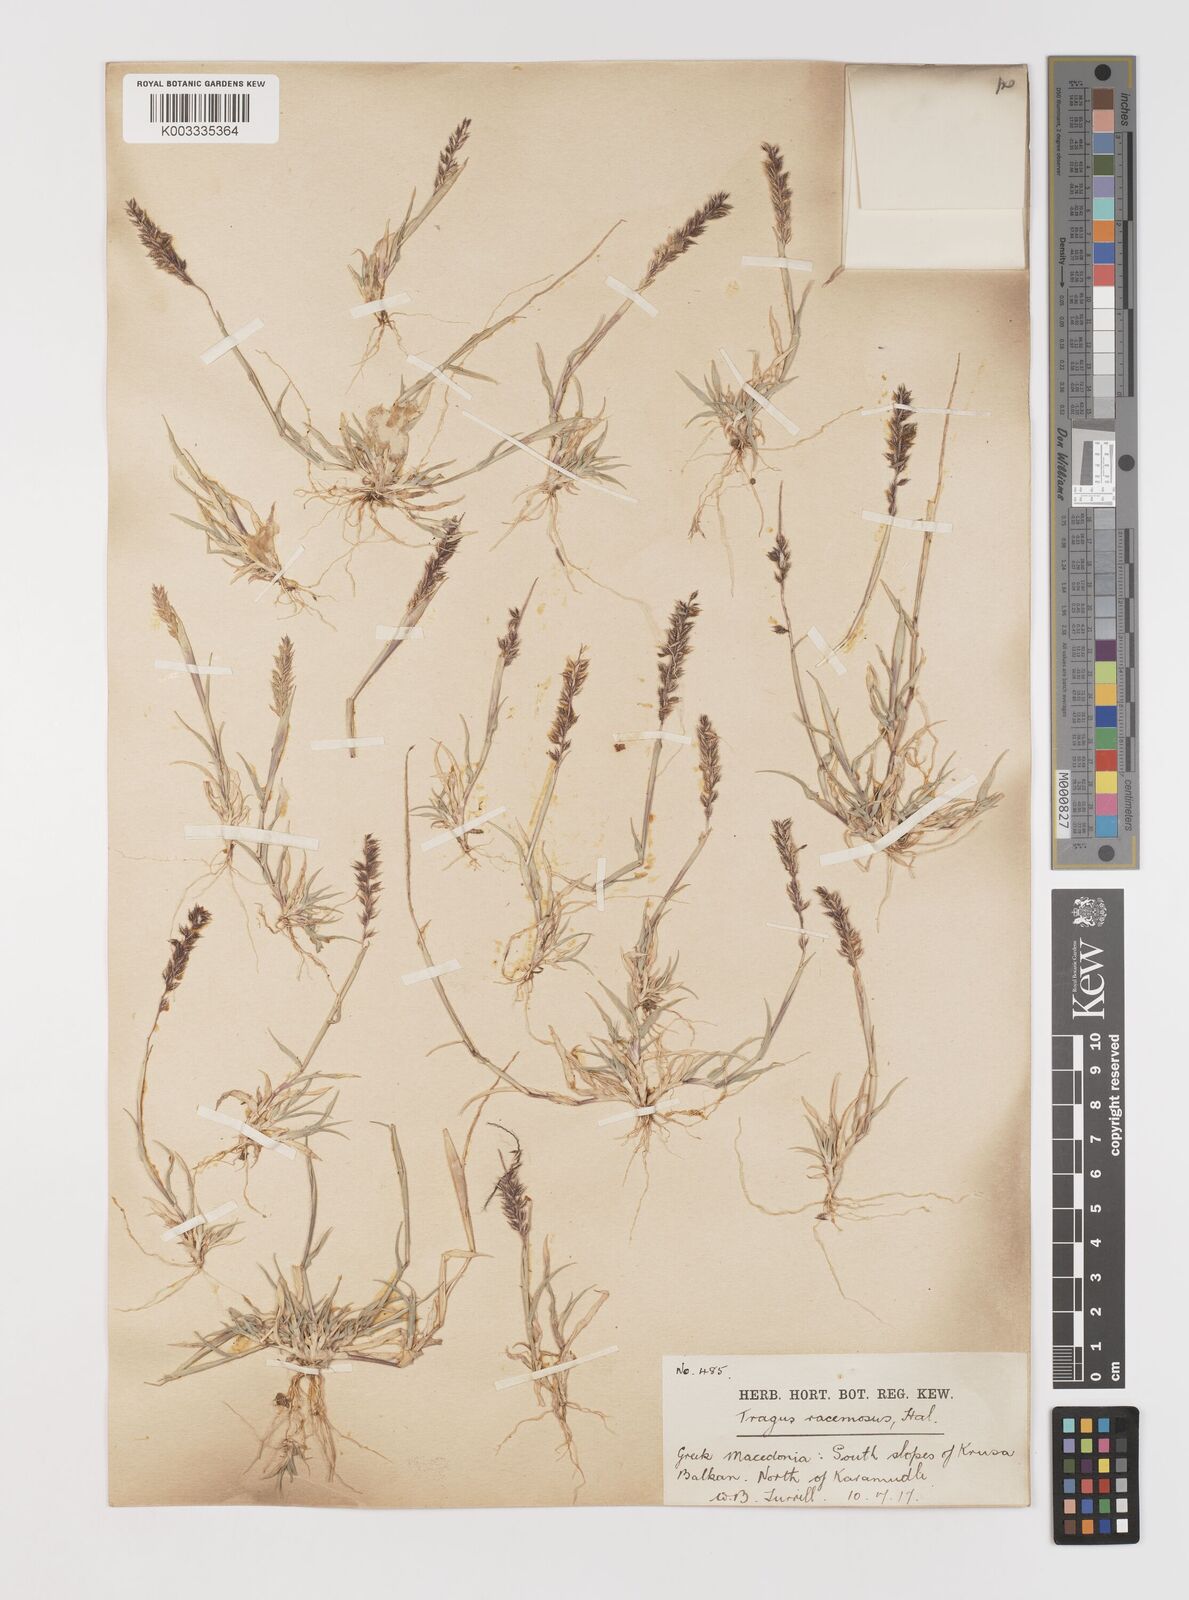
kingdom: Plantae
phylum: Tracheophyta
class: Liliopsida
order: Poales
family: Poaceae
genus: Tragus
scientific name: Tragus racemosus
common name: European bur-grass
